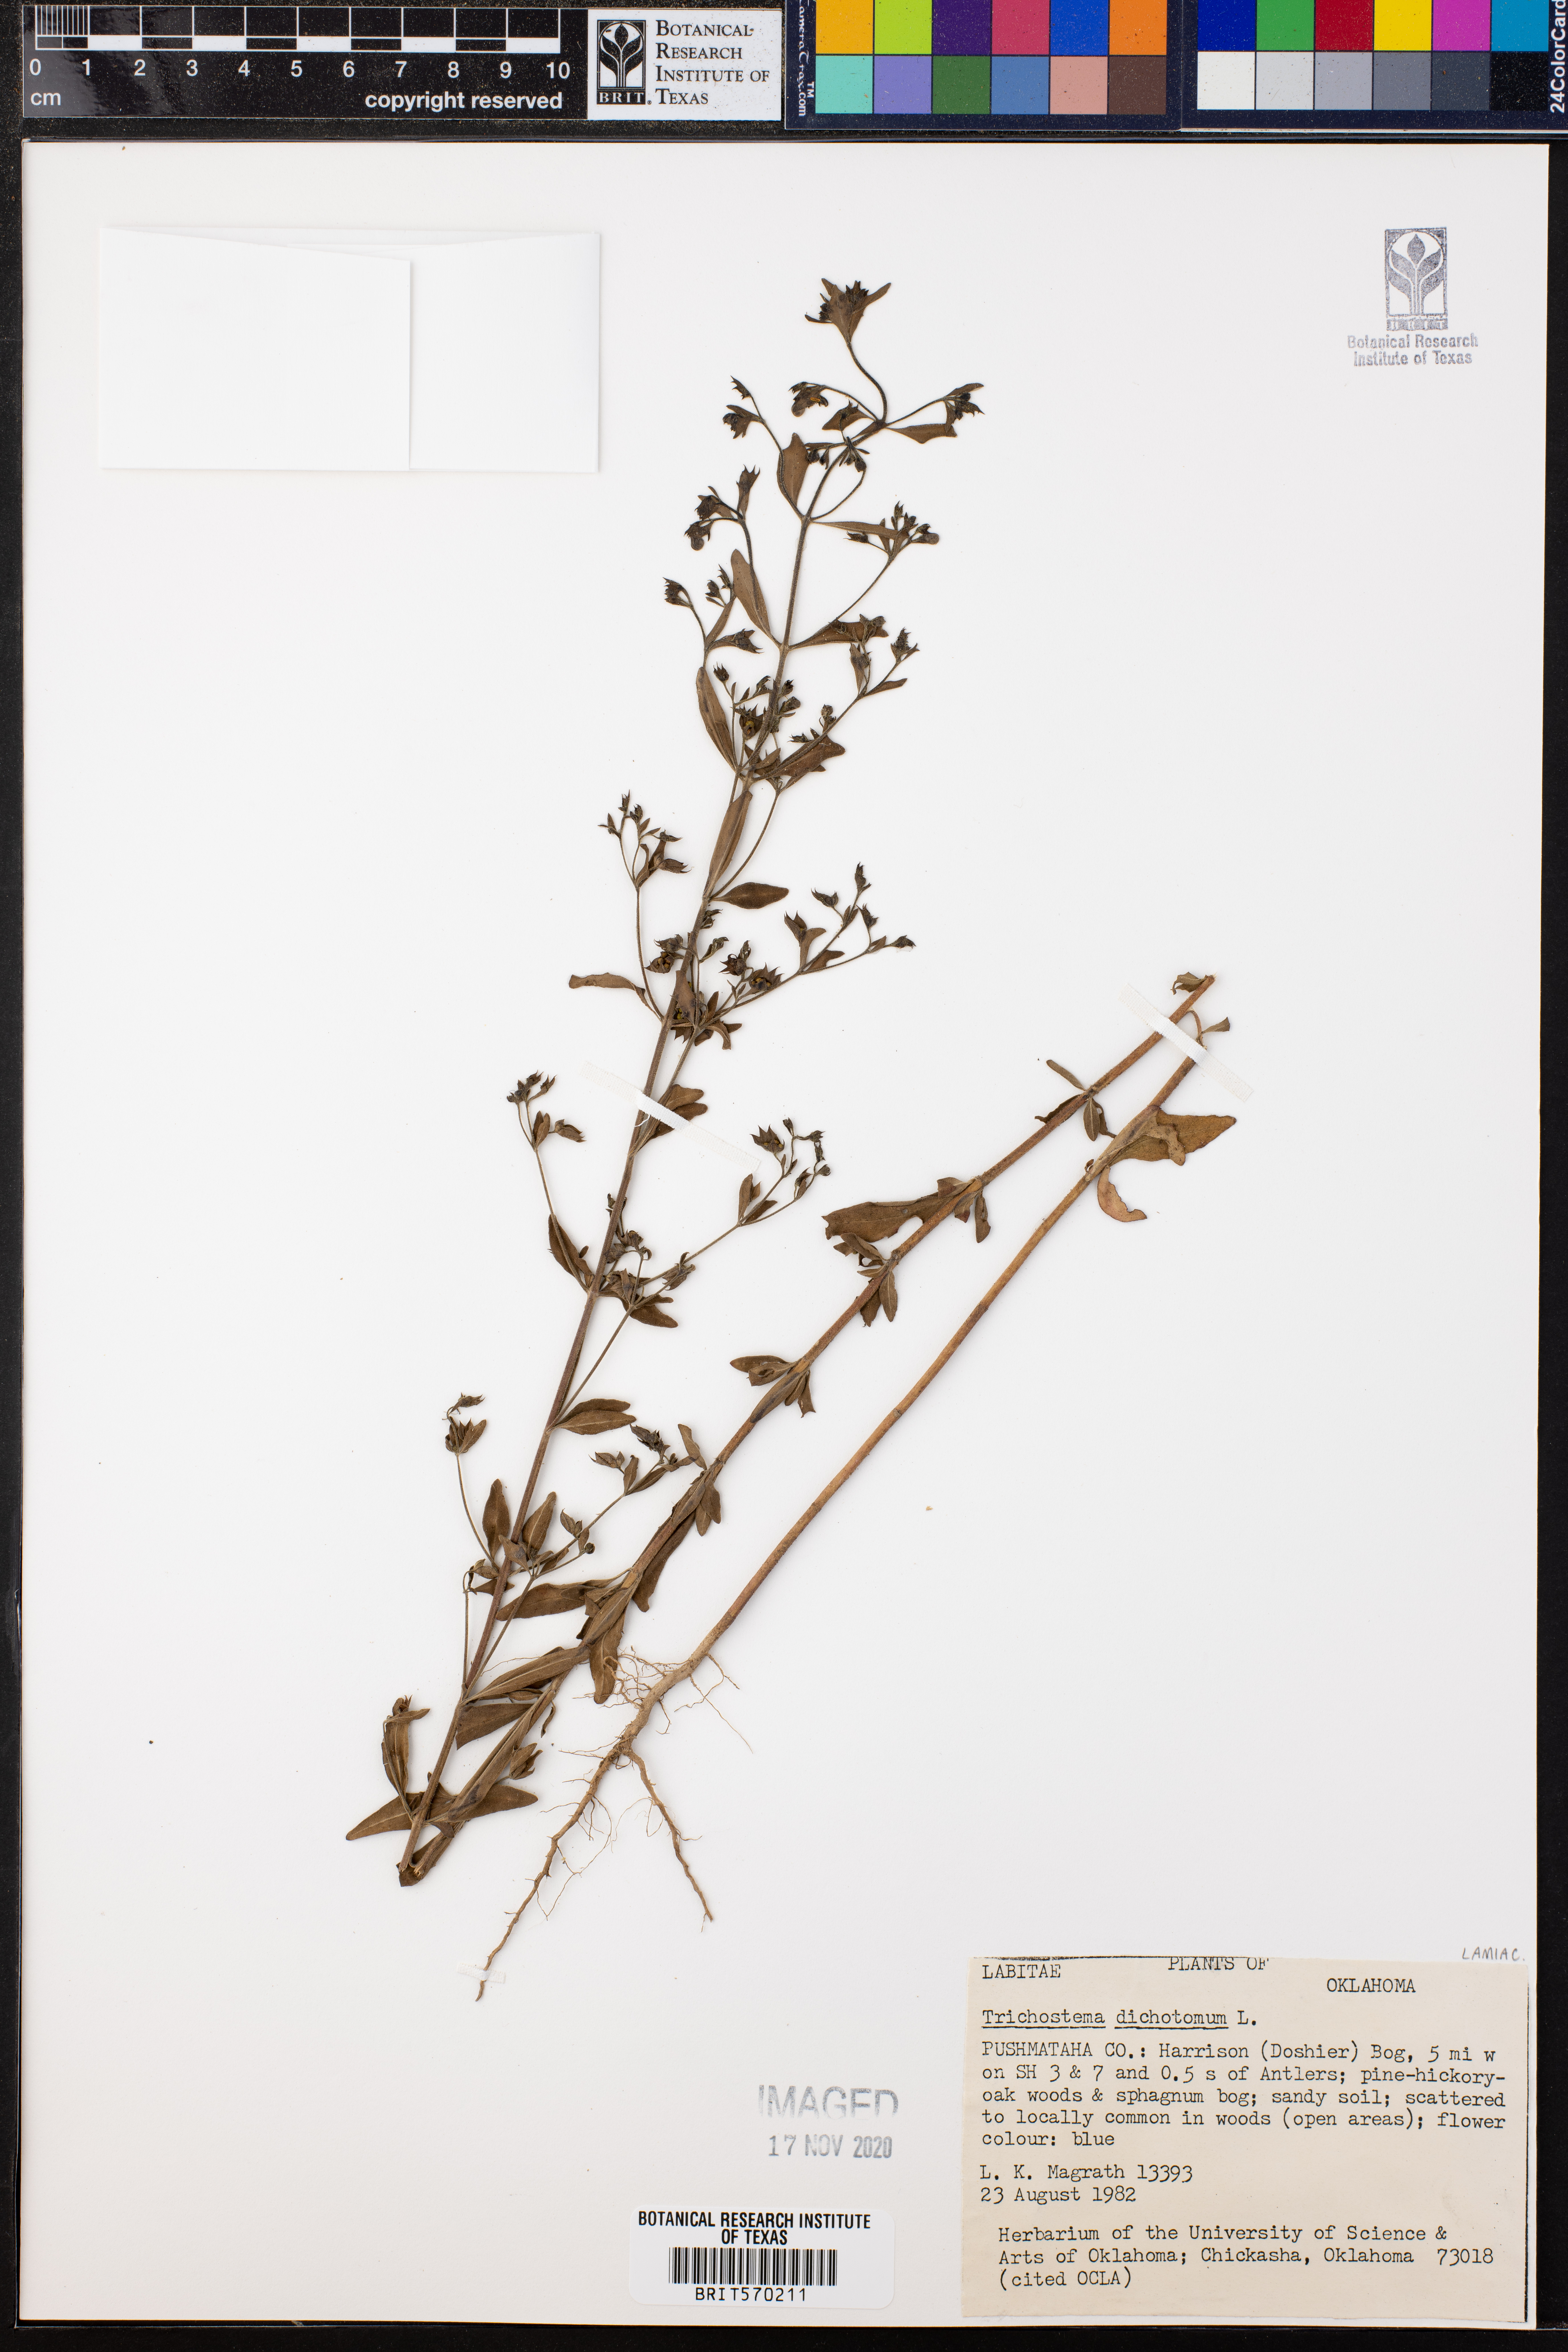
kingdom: Plantae
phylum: Tracheophyta
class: Magnoliopsida
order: Lamiales
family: Lamiaceae
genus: Trichostema
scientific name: Trichostema dichotomum
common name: Bastard pennyroyal
